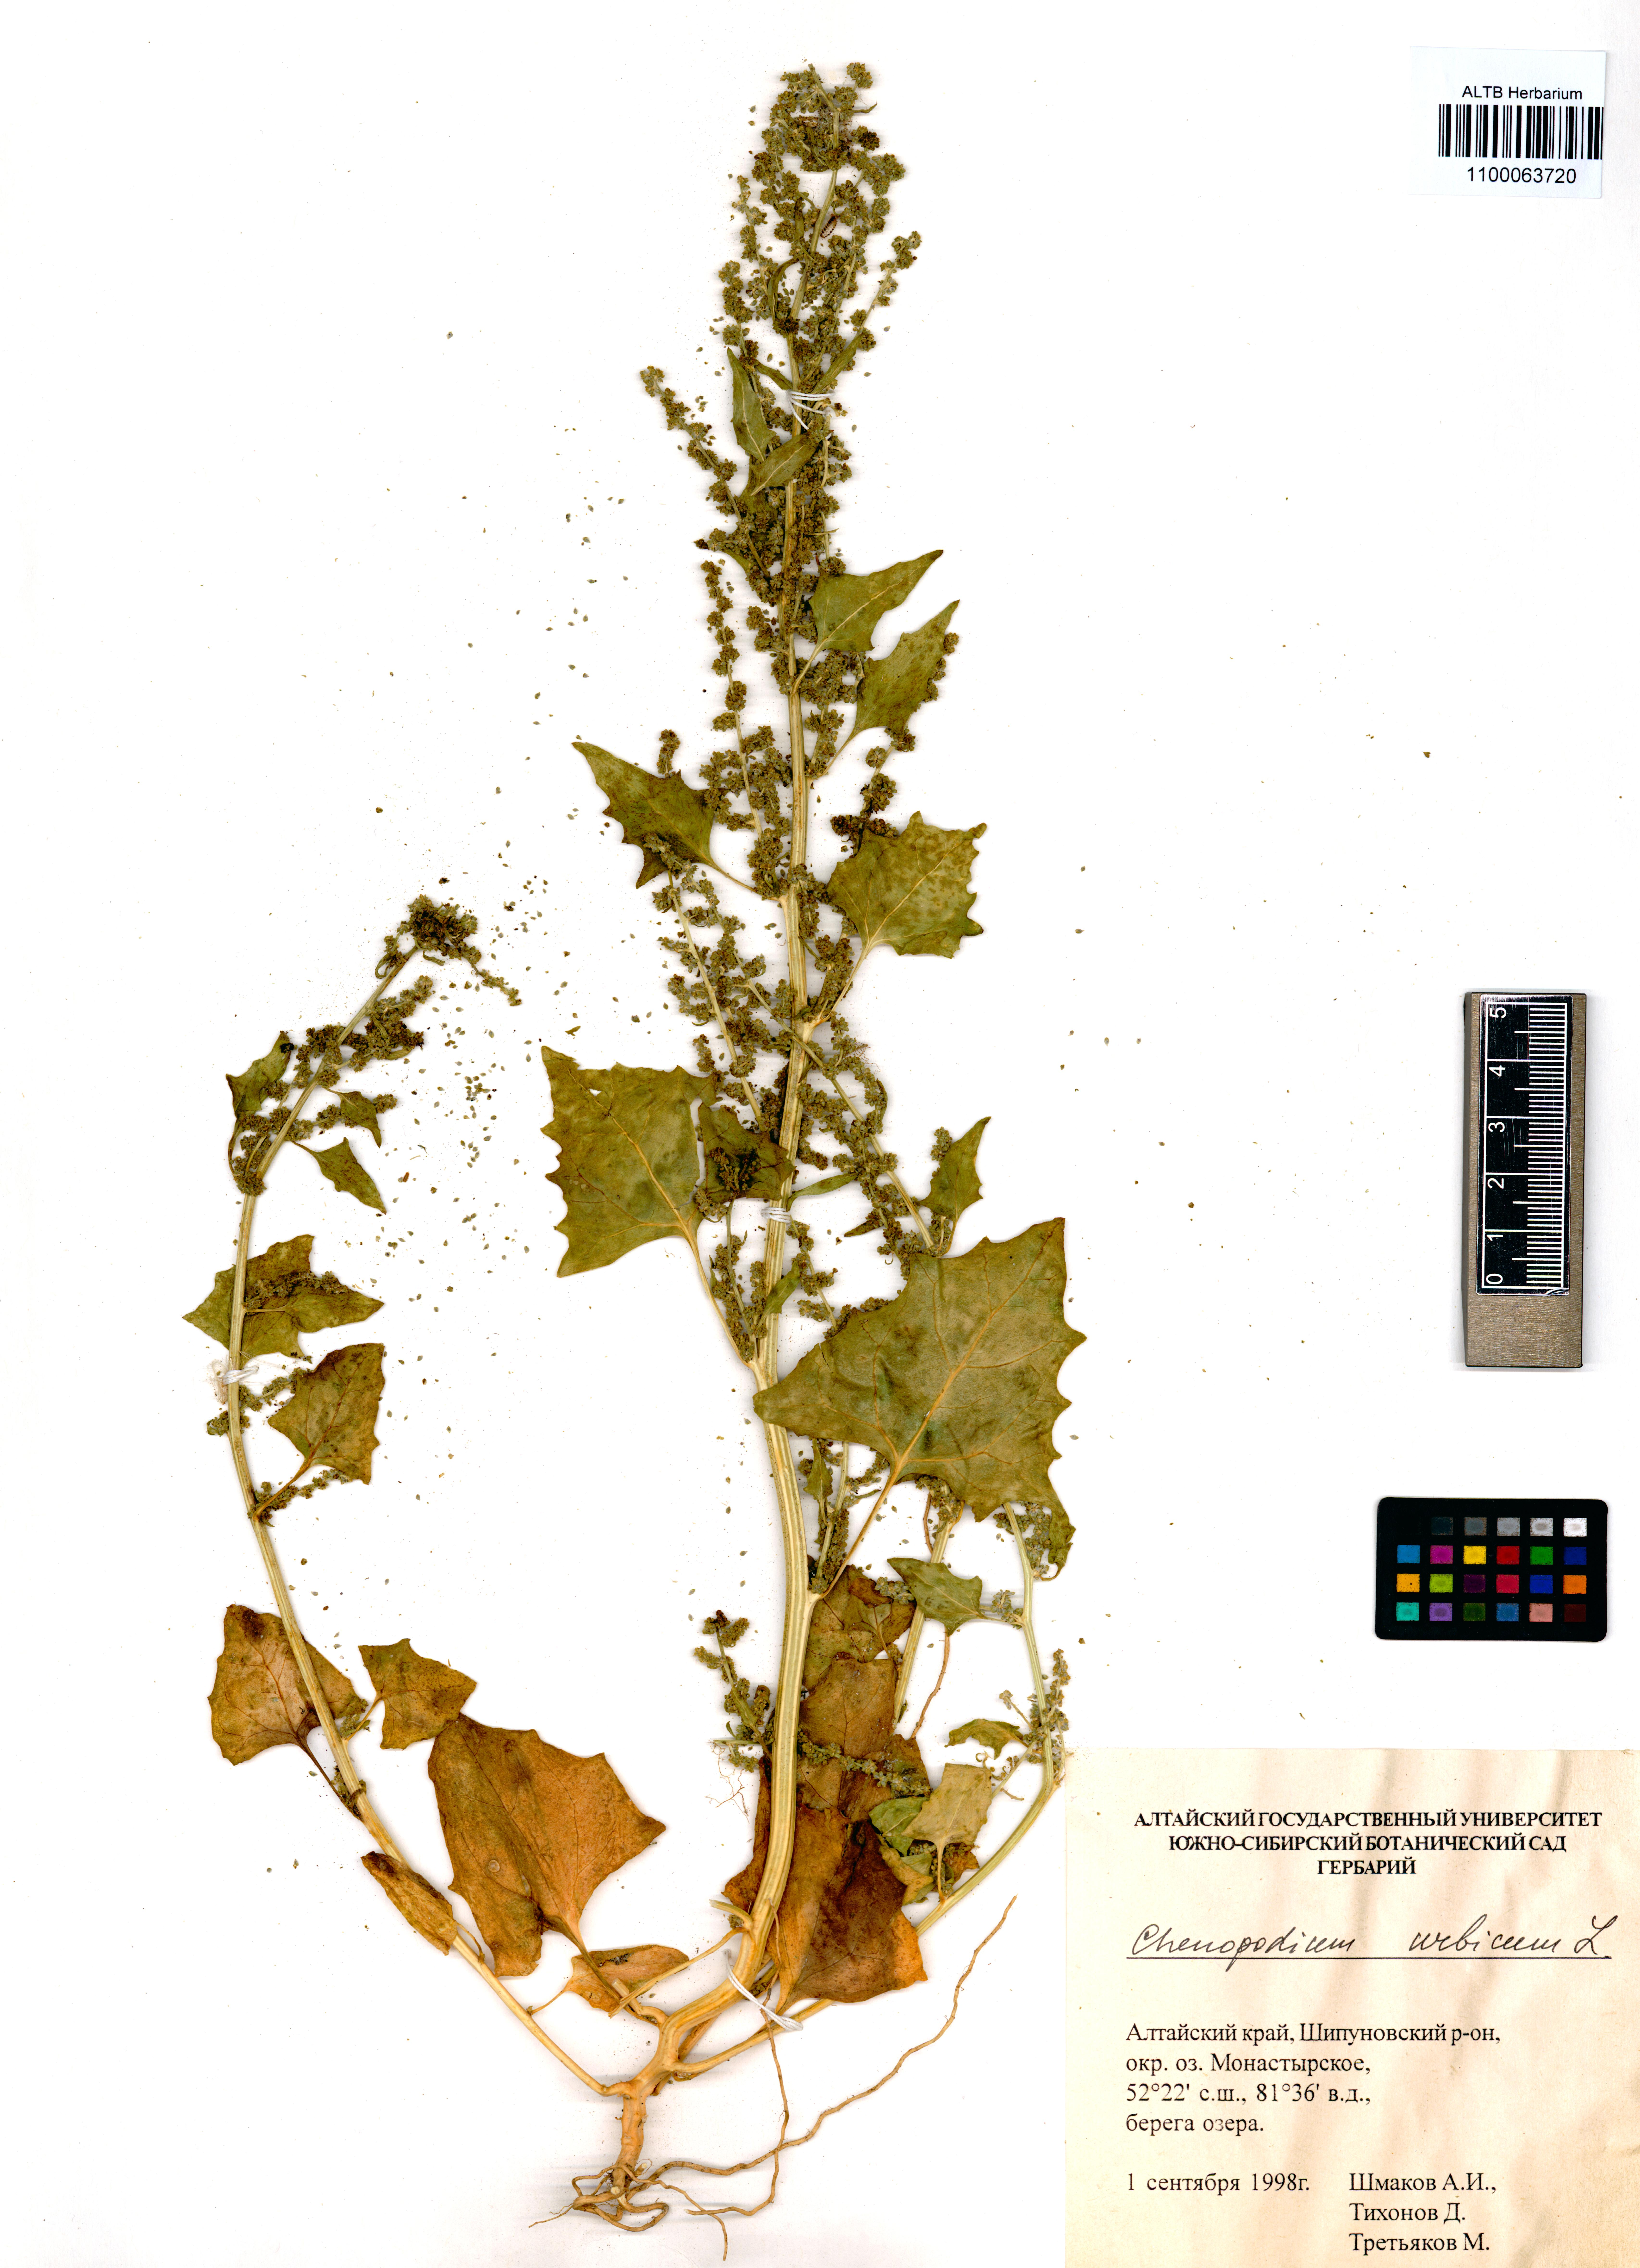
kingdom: Plantae
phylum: Tracheophyta
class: Magnoliopsida
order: Caryophyllales
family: Amaranthaceae
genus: Oxybasis
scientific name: Oxybasis urbica
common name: City goosefoot
